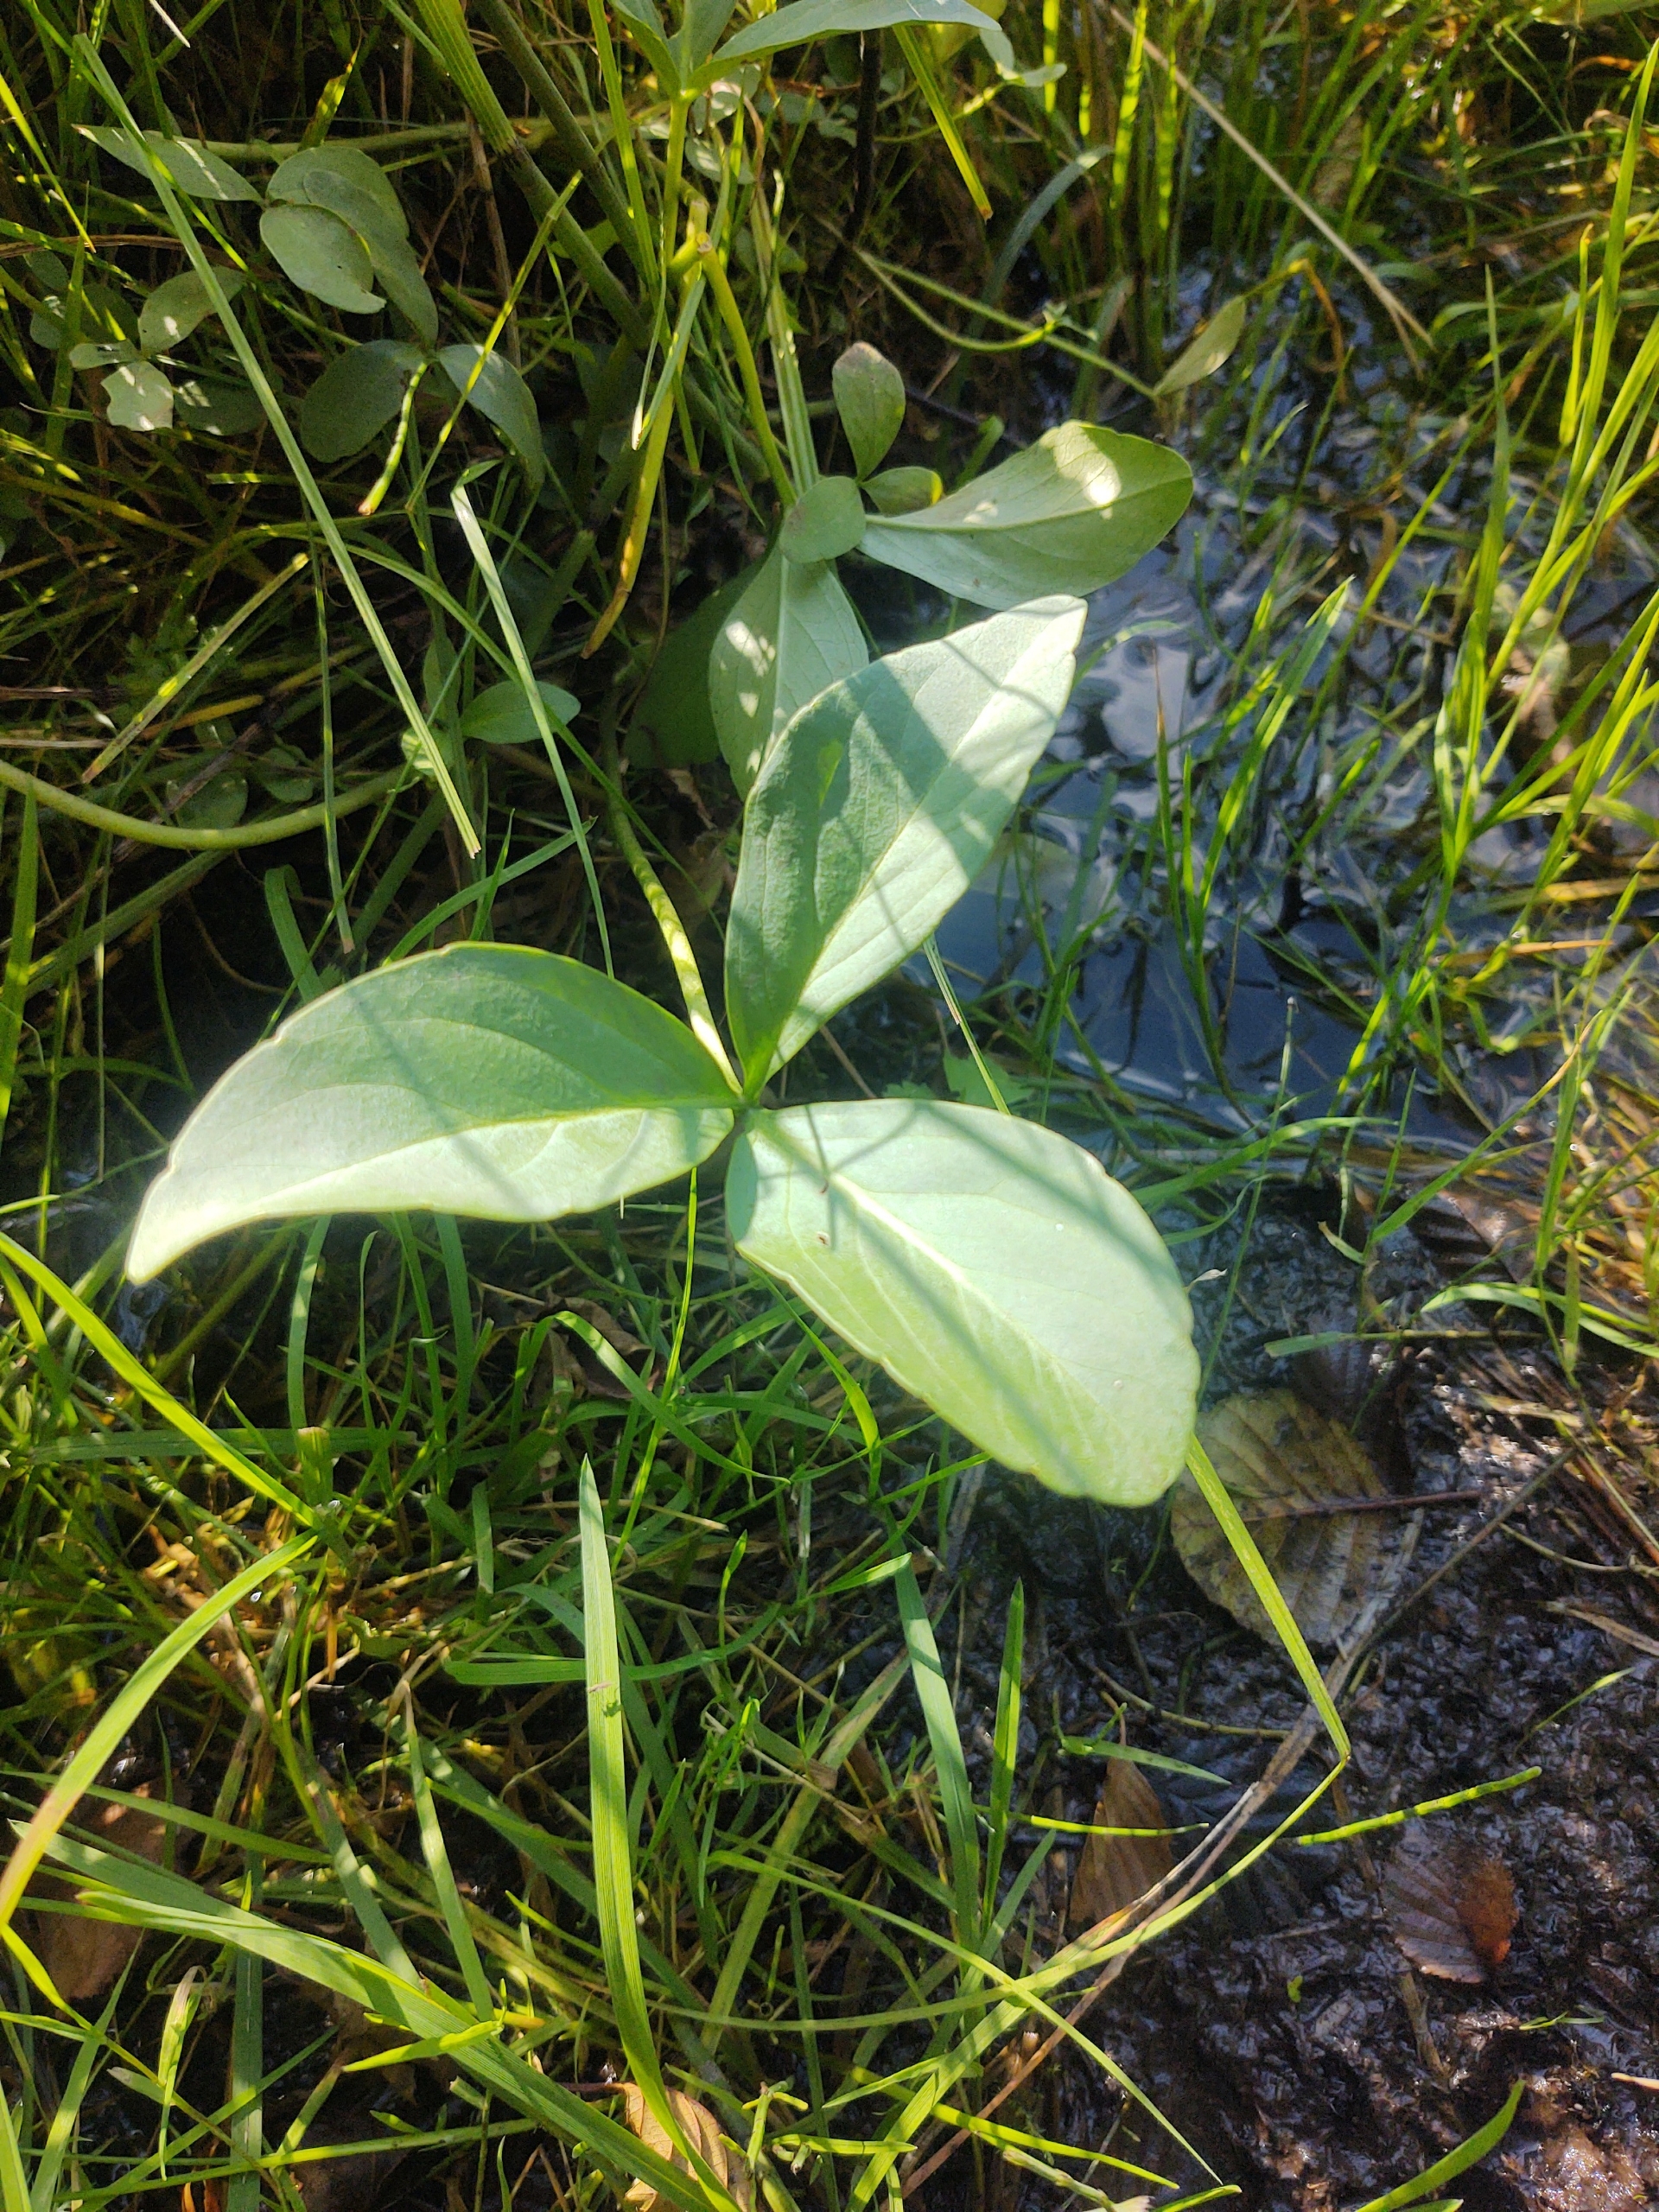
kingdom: Plantae
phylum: Tracheophyta
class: Magnoliopsida
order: Asterales
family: Menyanthaceae
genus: Menyanthes
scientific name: Menyanthes trifoliata
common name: Bukkeblad
